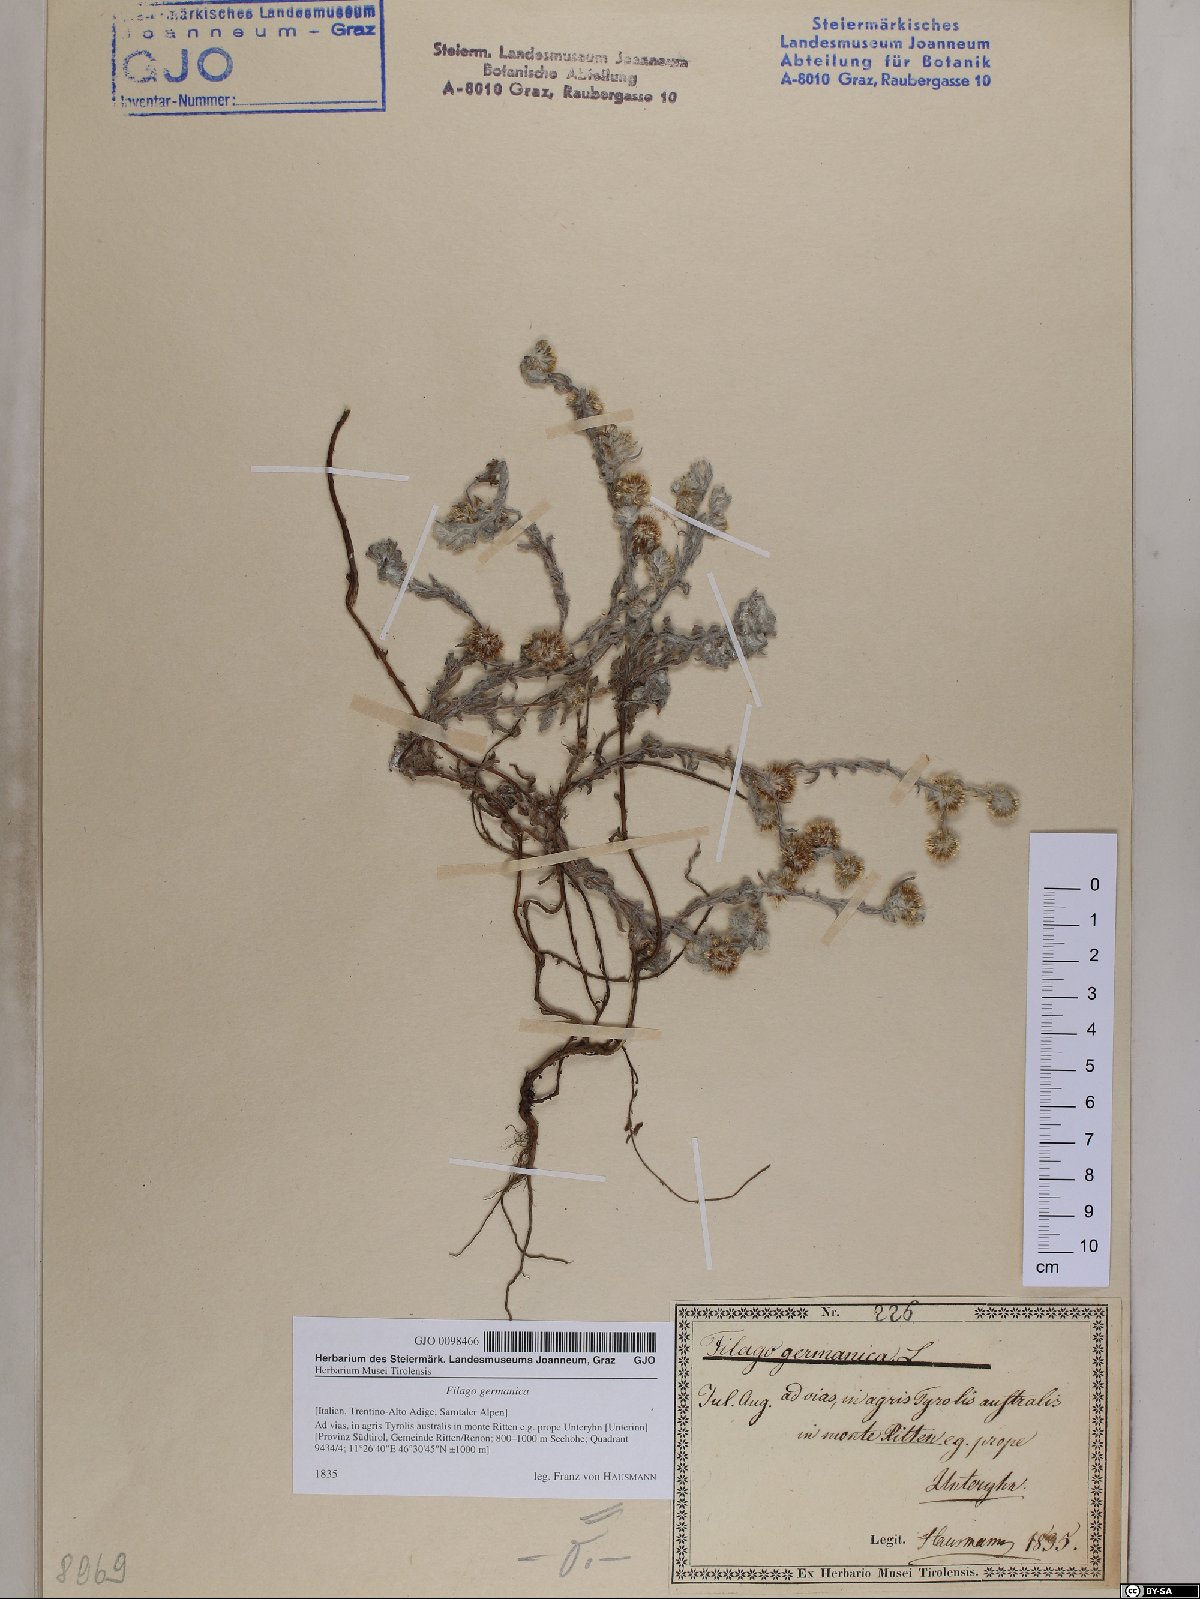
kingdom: Plantae
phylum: Tracheophyta
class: Magnoliopsida
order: Asterales
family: Asteraceae
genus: Filago
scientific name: Filago germanica
